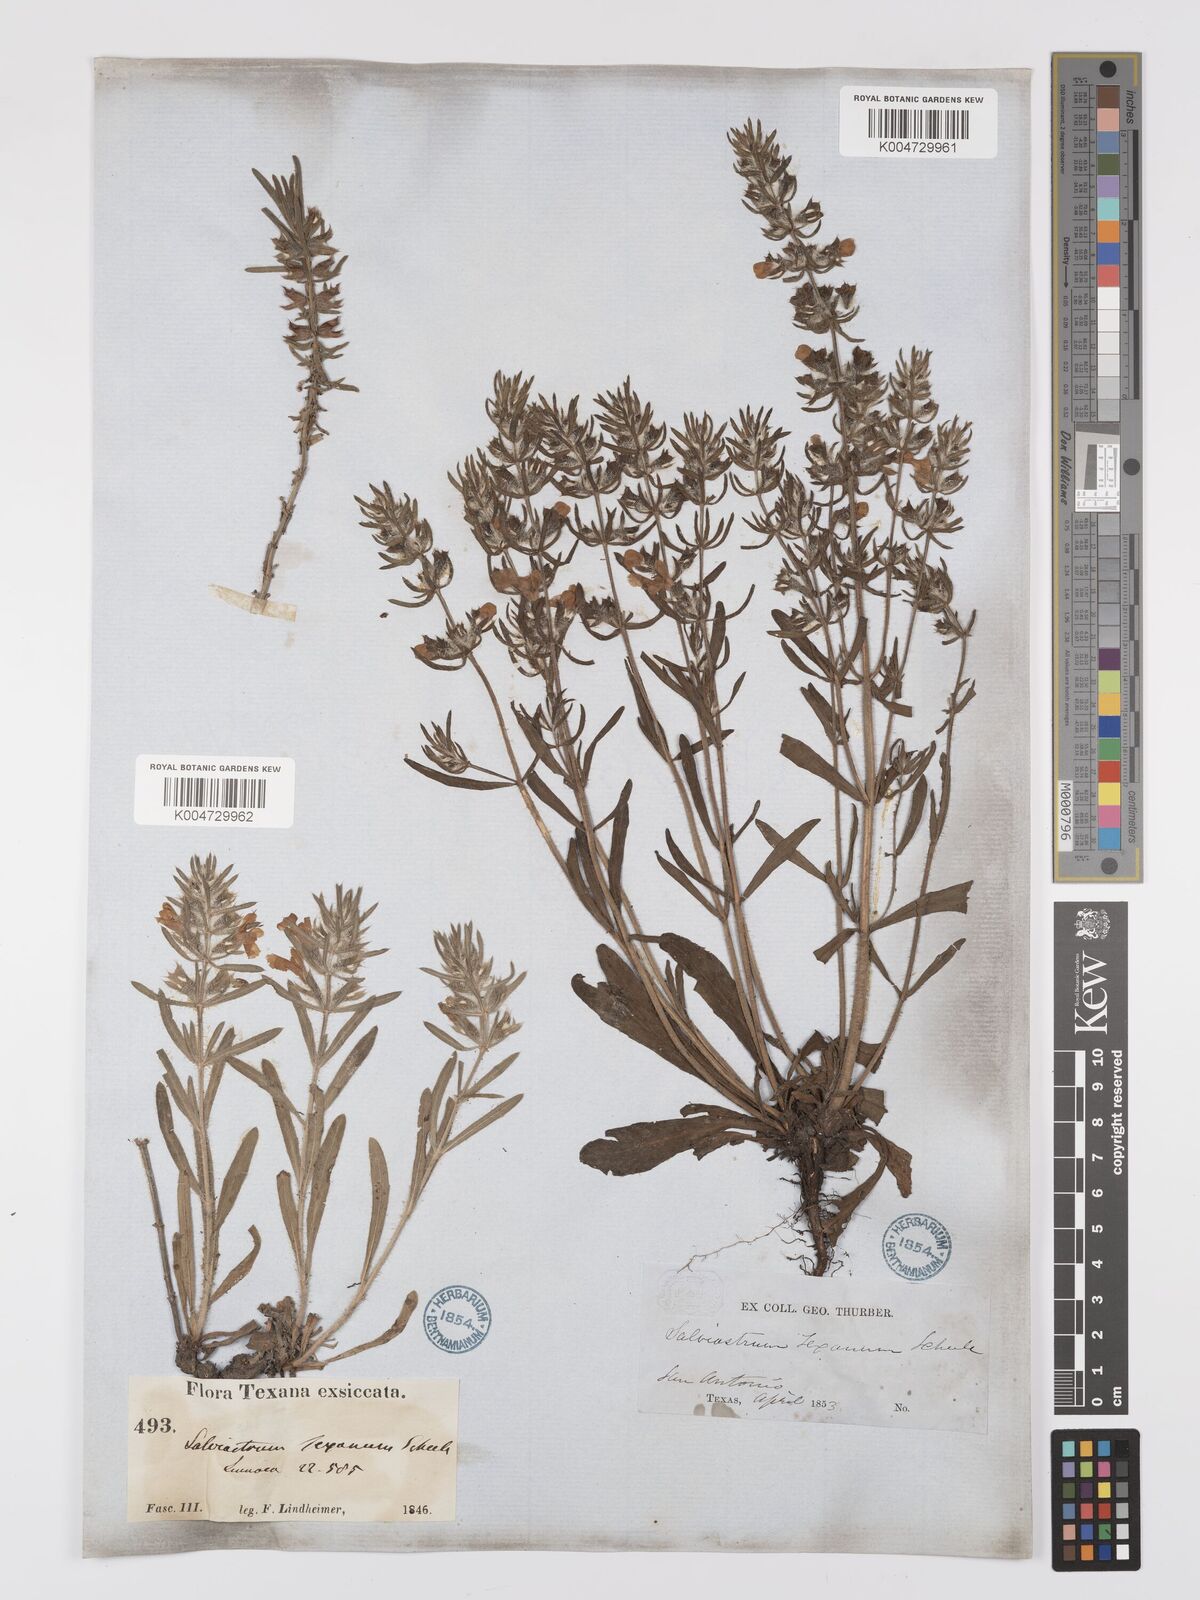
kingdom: Plantae
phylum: Tracheophyta
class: Magnoliopsida
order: Lamiales
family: Lamiaceae
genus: Salvia
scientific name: Salvia texana
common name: Texas sage
